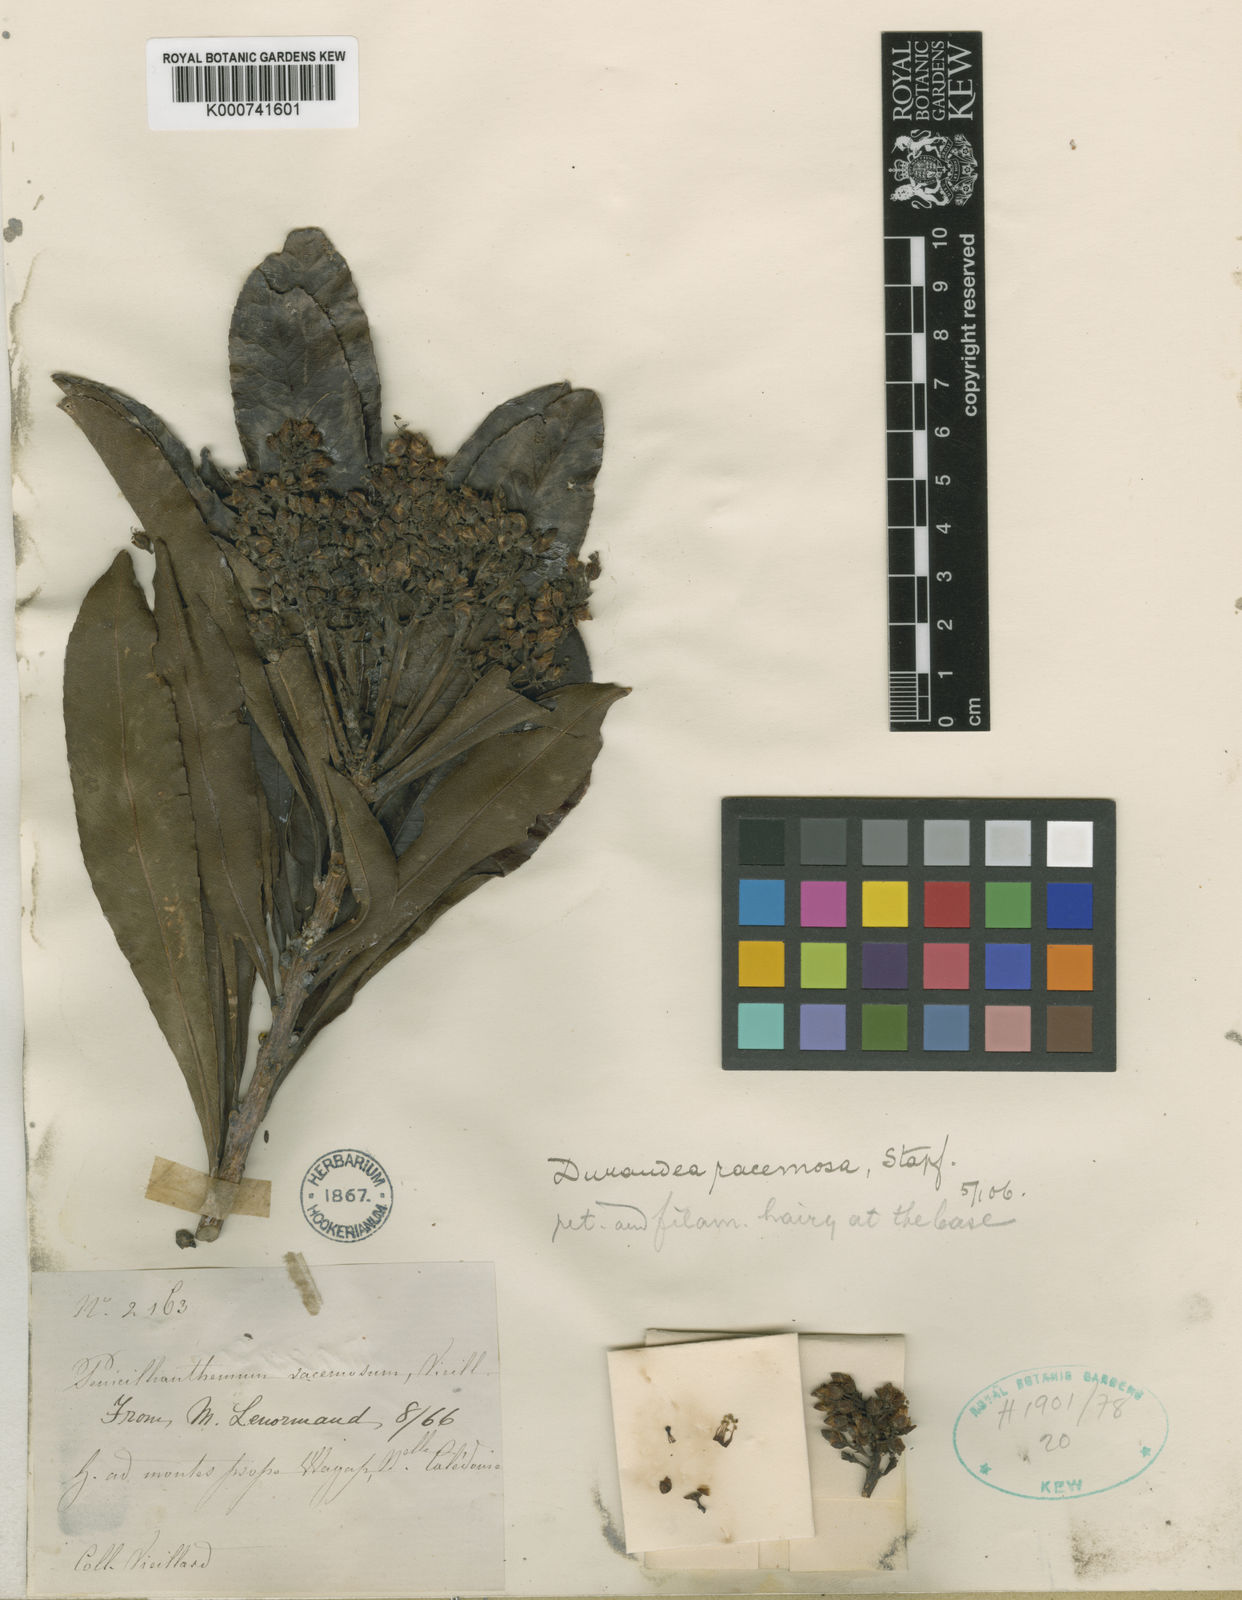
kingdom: Plantae
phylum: Tracheophyta
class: Magnoliopsida
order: Malpighiales
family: Linaceae
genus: Durandea
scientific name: Durandea racemosa
